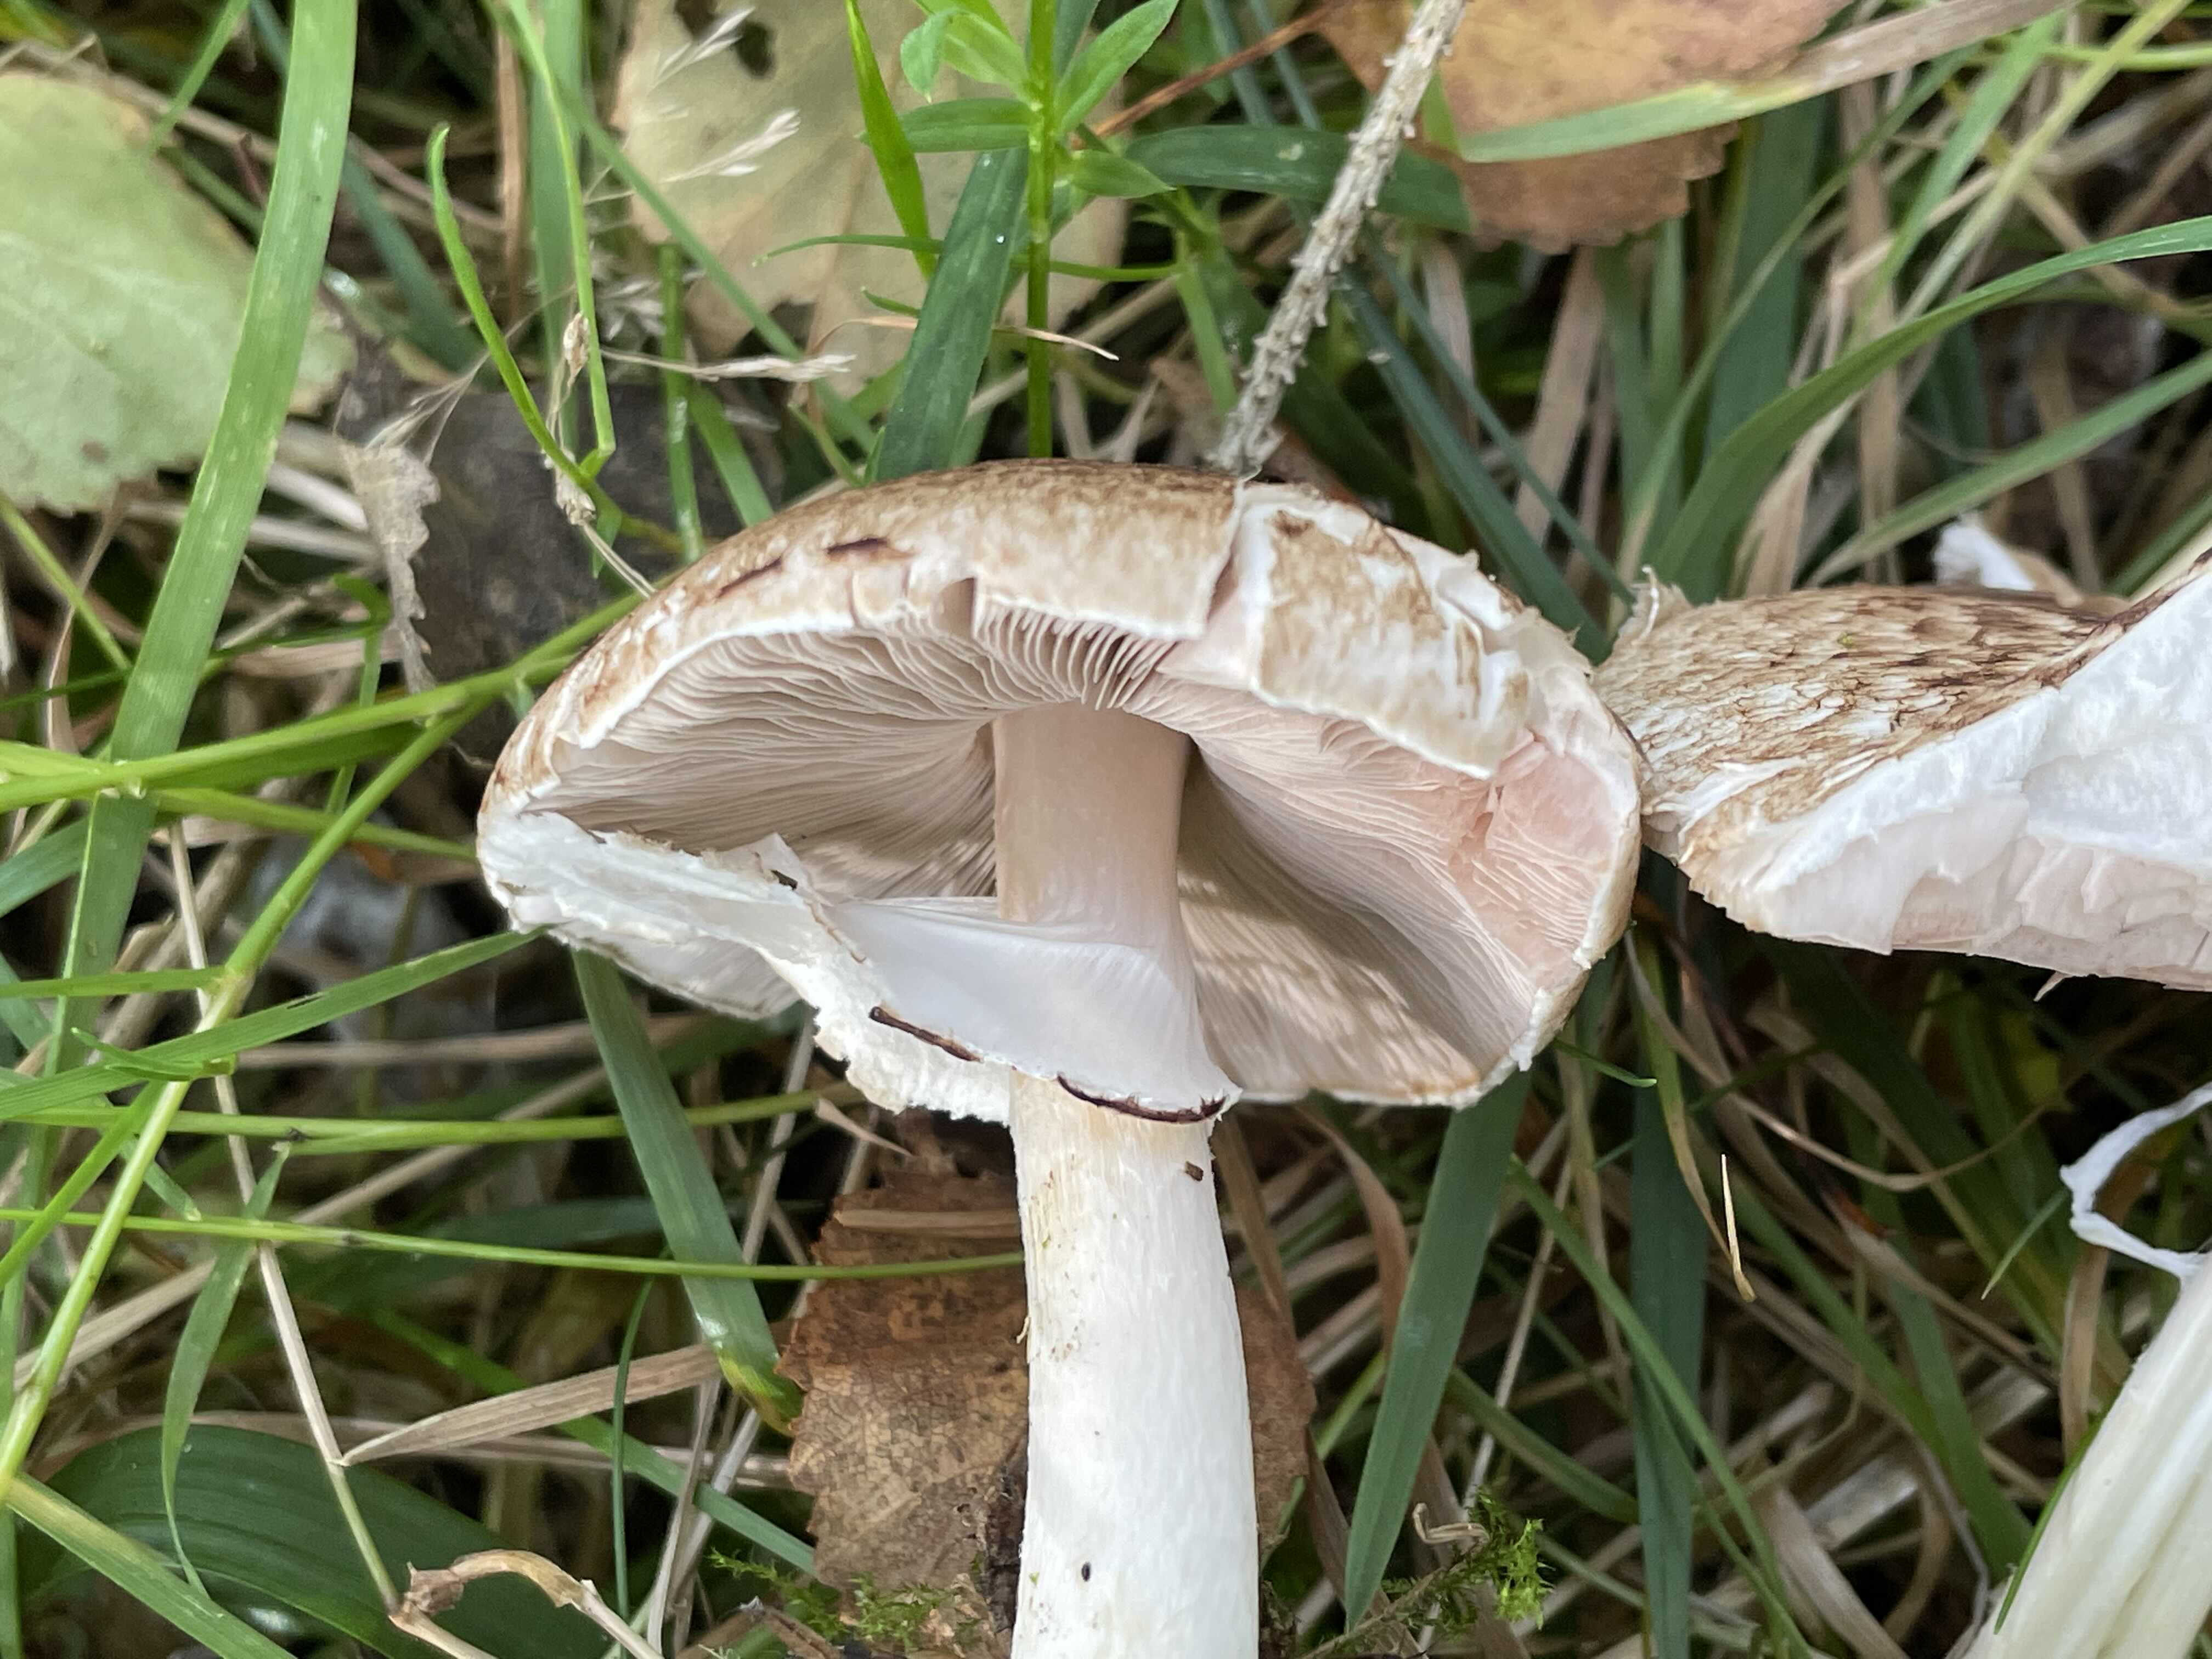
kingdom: Fungi
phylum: Basidiomycota
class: Agaricomycetes
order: Agaricales
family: Agaricaceae
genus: Agaricus
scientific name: Agaricus impudicus
